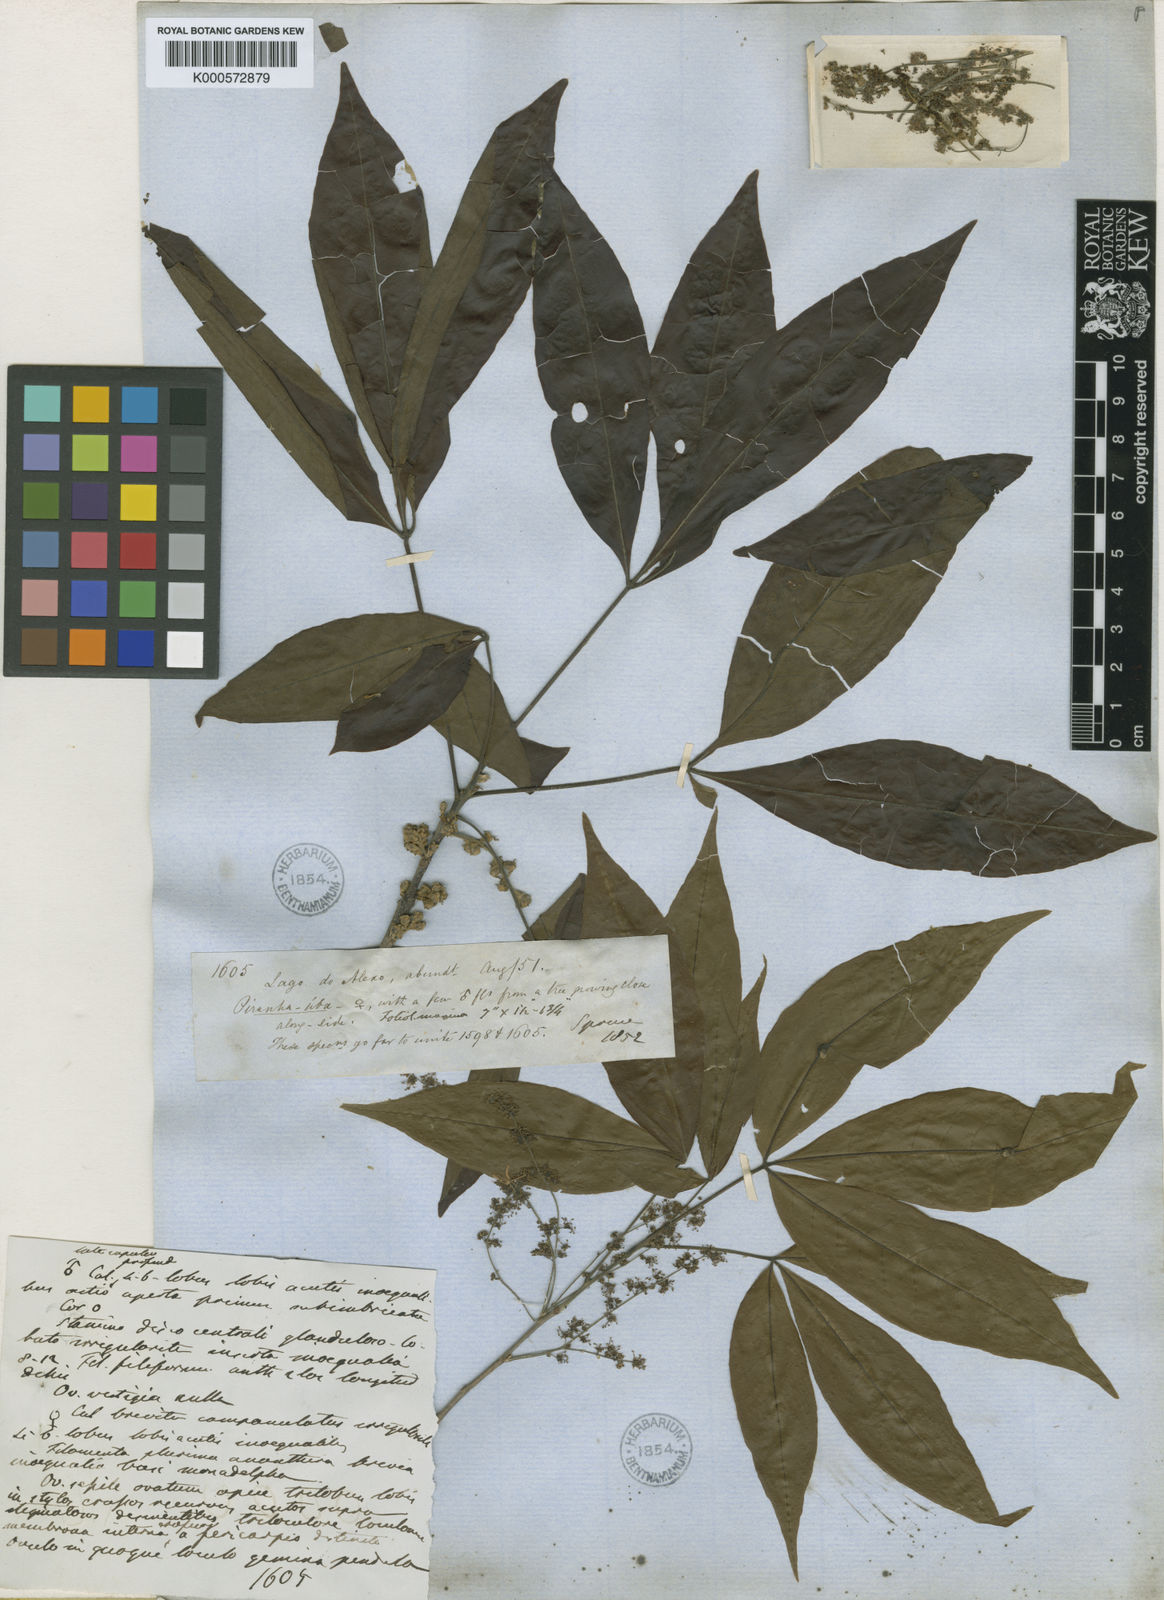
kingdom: Plantae
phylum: Tracheophyta
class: Magnoliopsida
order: Malpighiales
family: Picrodendraceae
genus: Piranhea
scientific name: Piranhea trifoliolata
